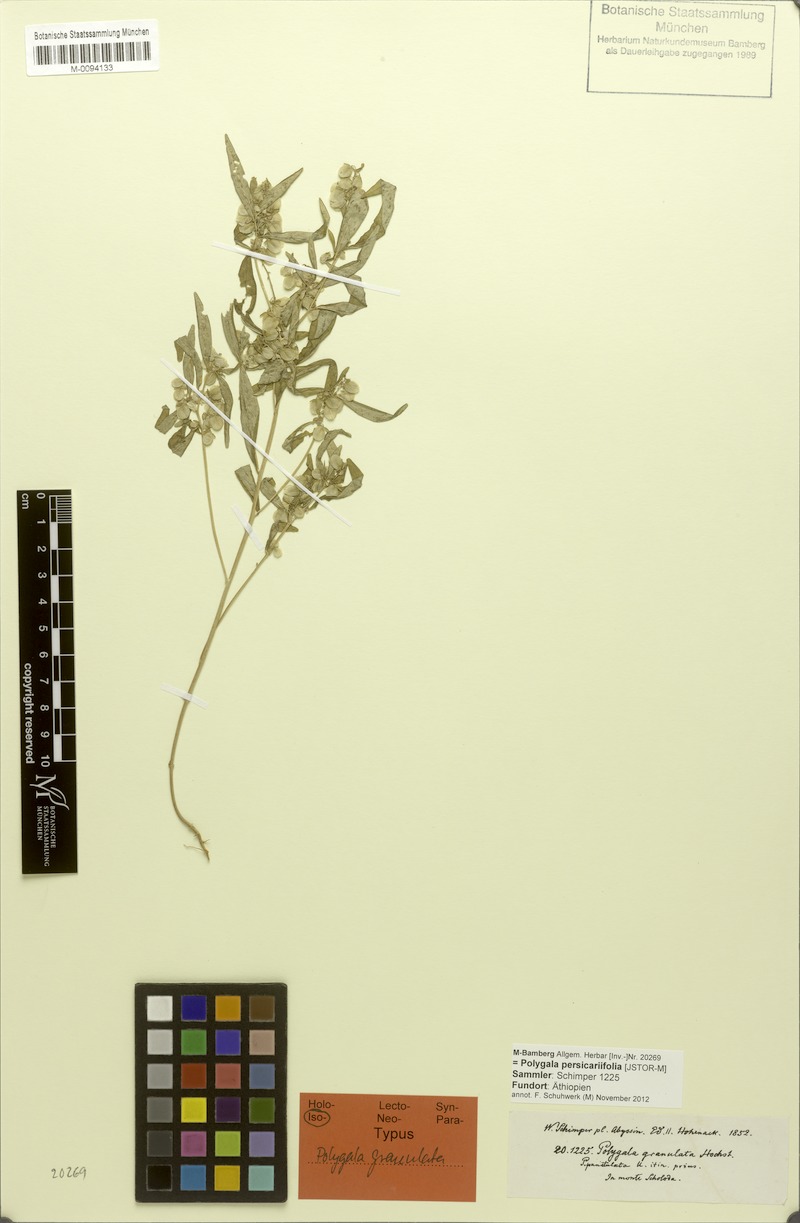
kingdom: Plantae
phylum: Tracheophyta
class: Magnoliopsida
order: Fabales
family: Polygalaceae
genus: Polygala
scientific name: Polygala persicariifolia
